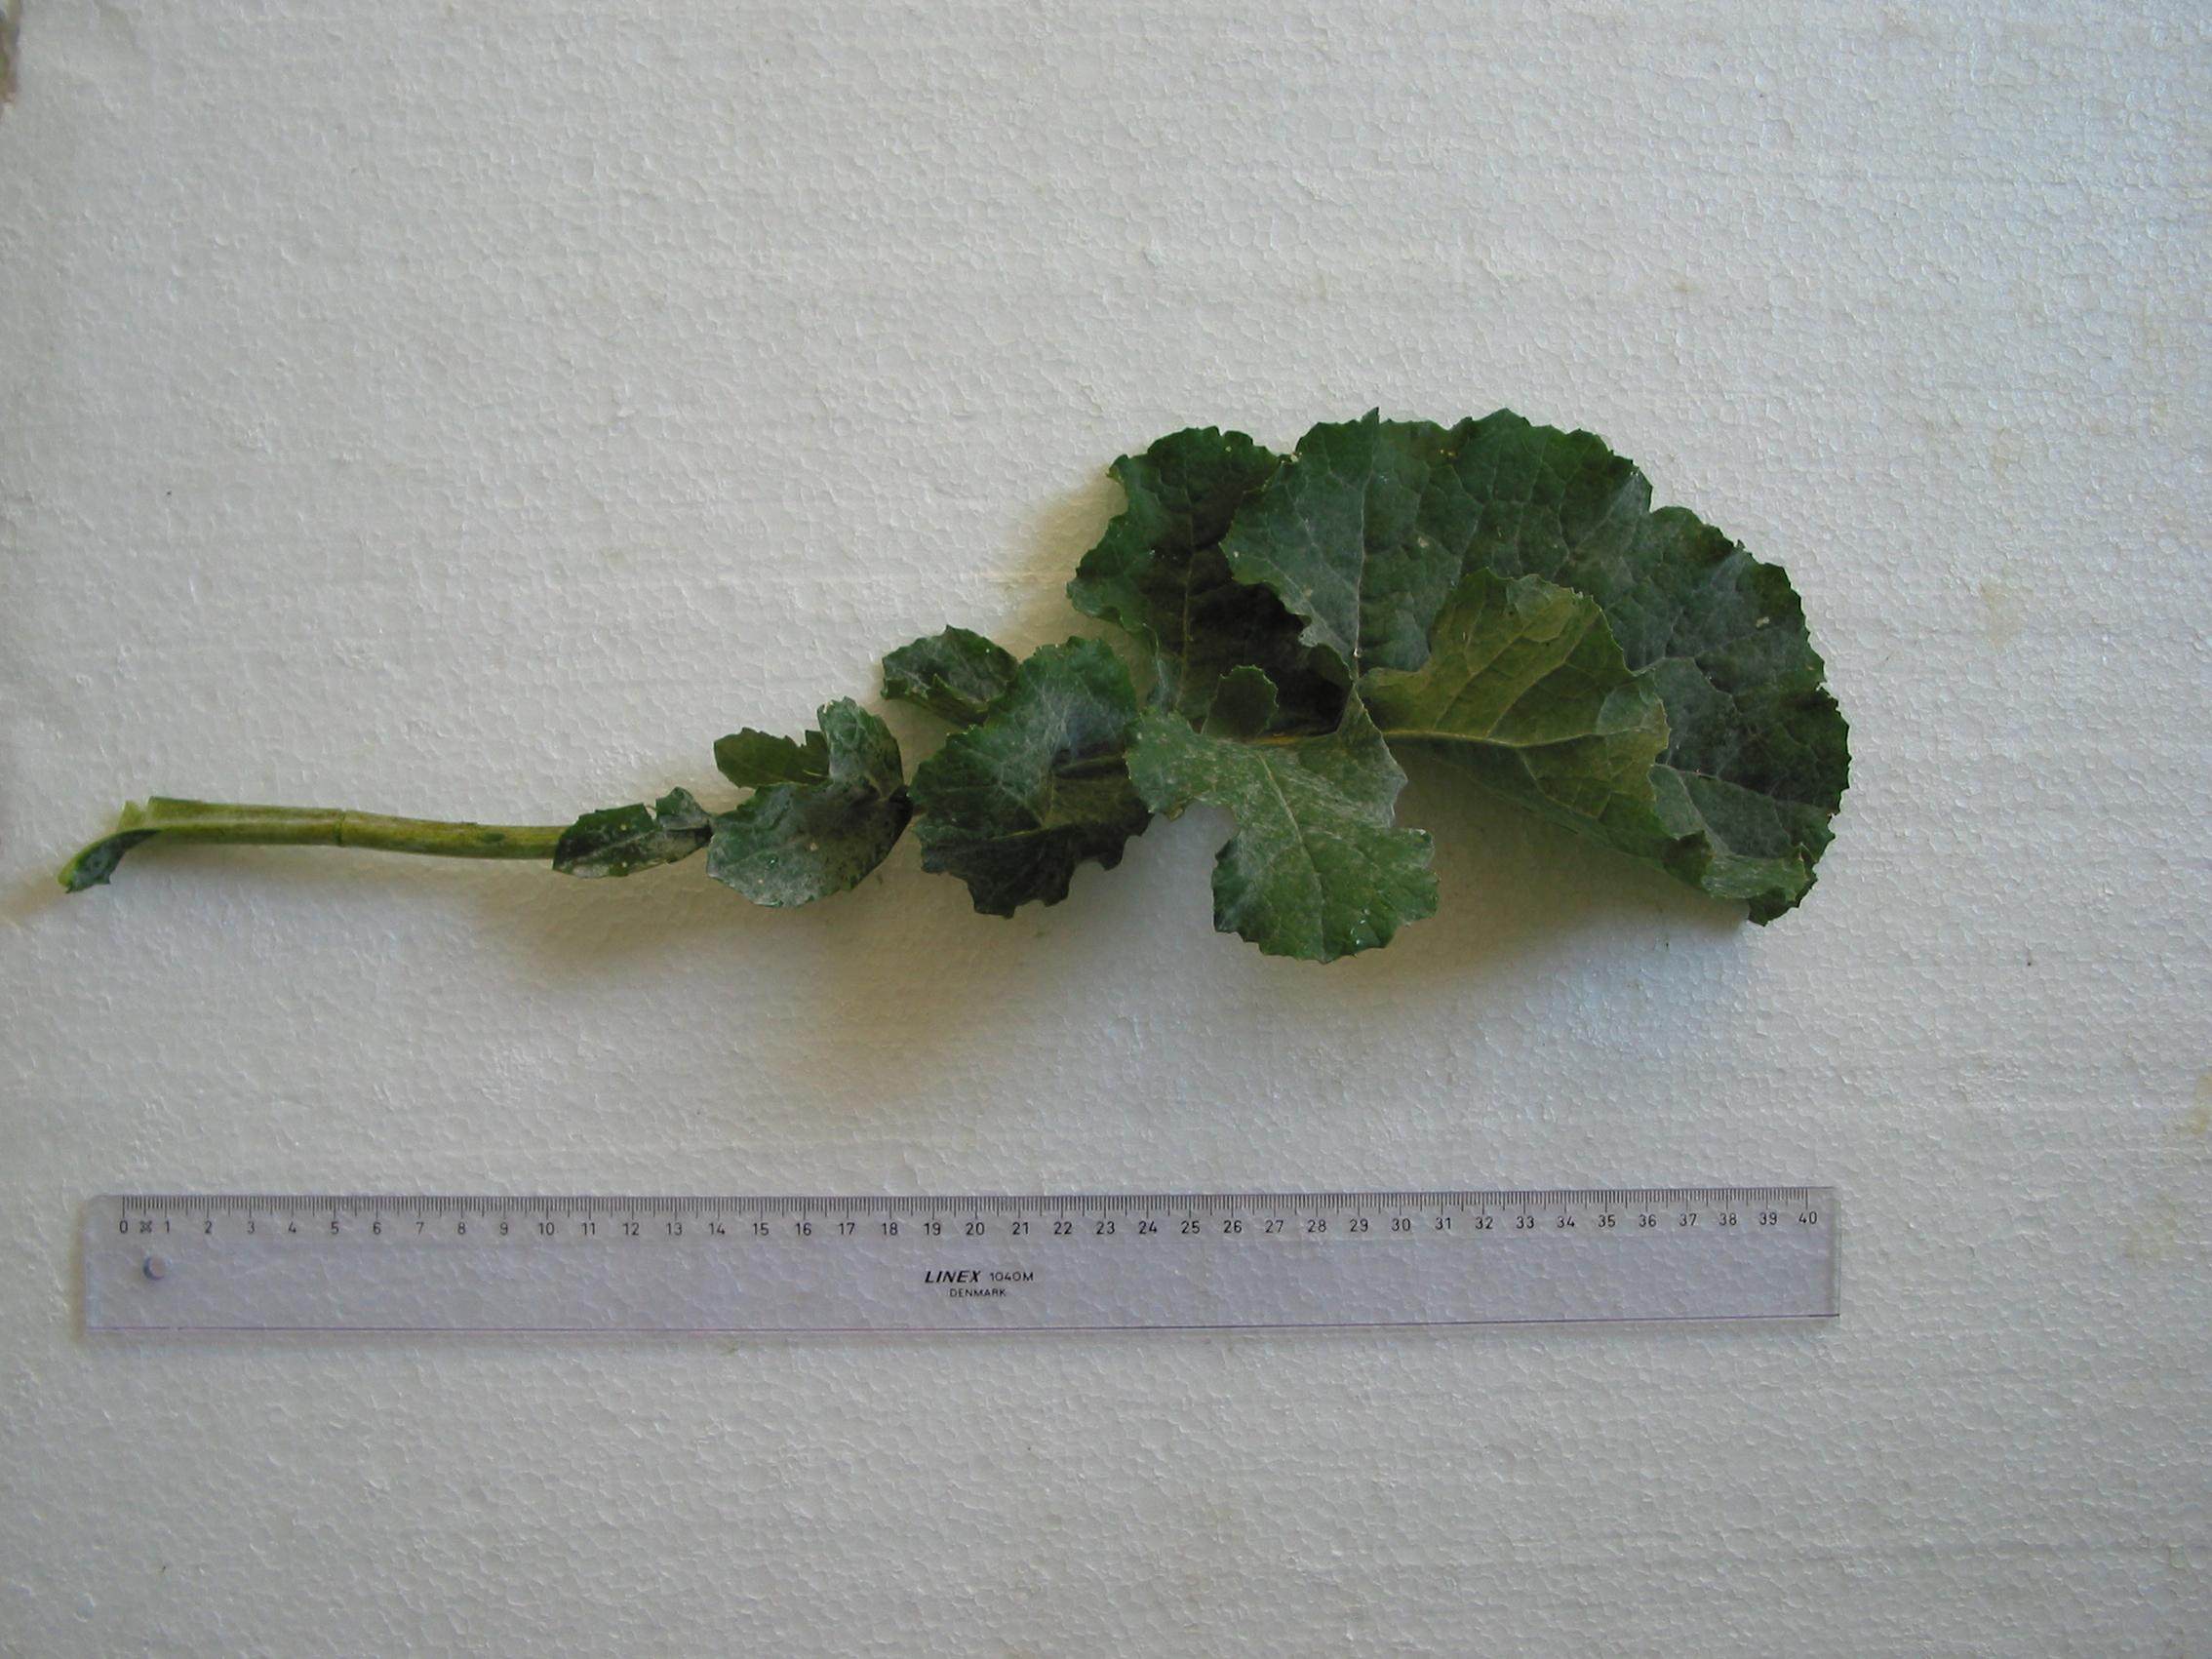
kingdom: Plantae
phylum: Tracheophyta
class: Magnoliopsida
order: Brassicales
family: Brassicaceae
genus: Brassica
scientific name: Brassica napus
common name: Rape
